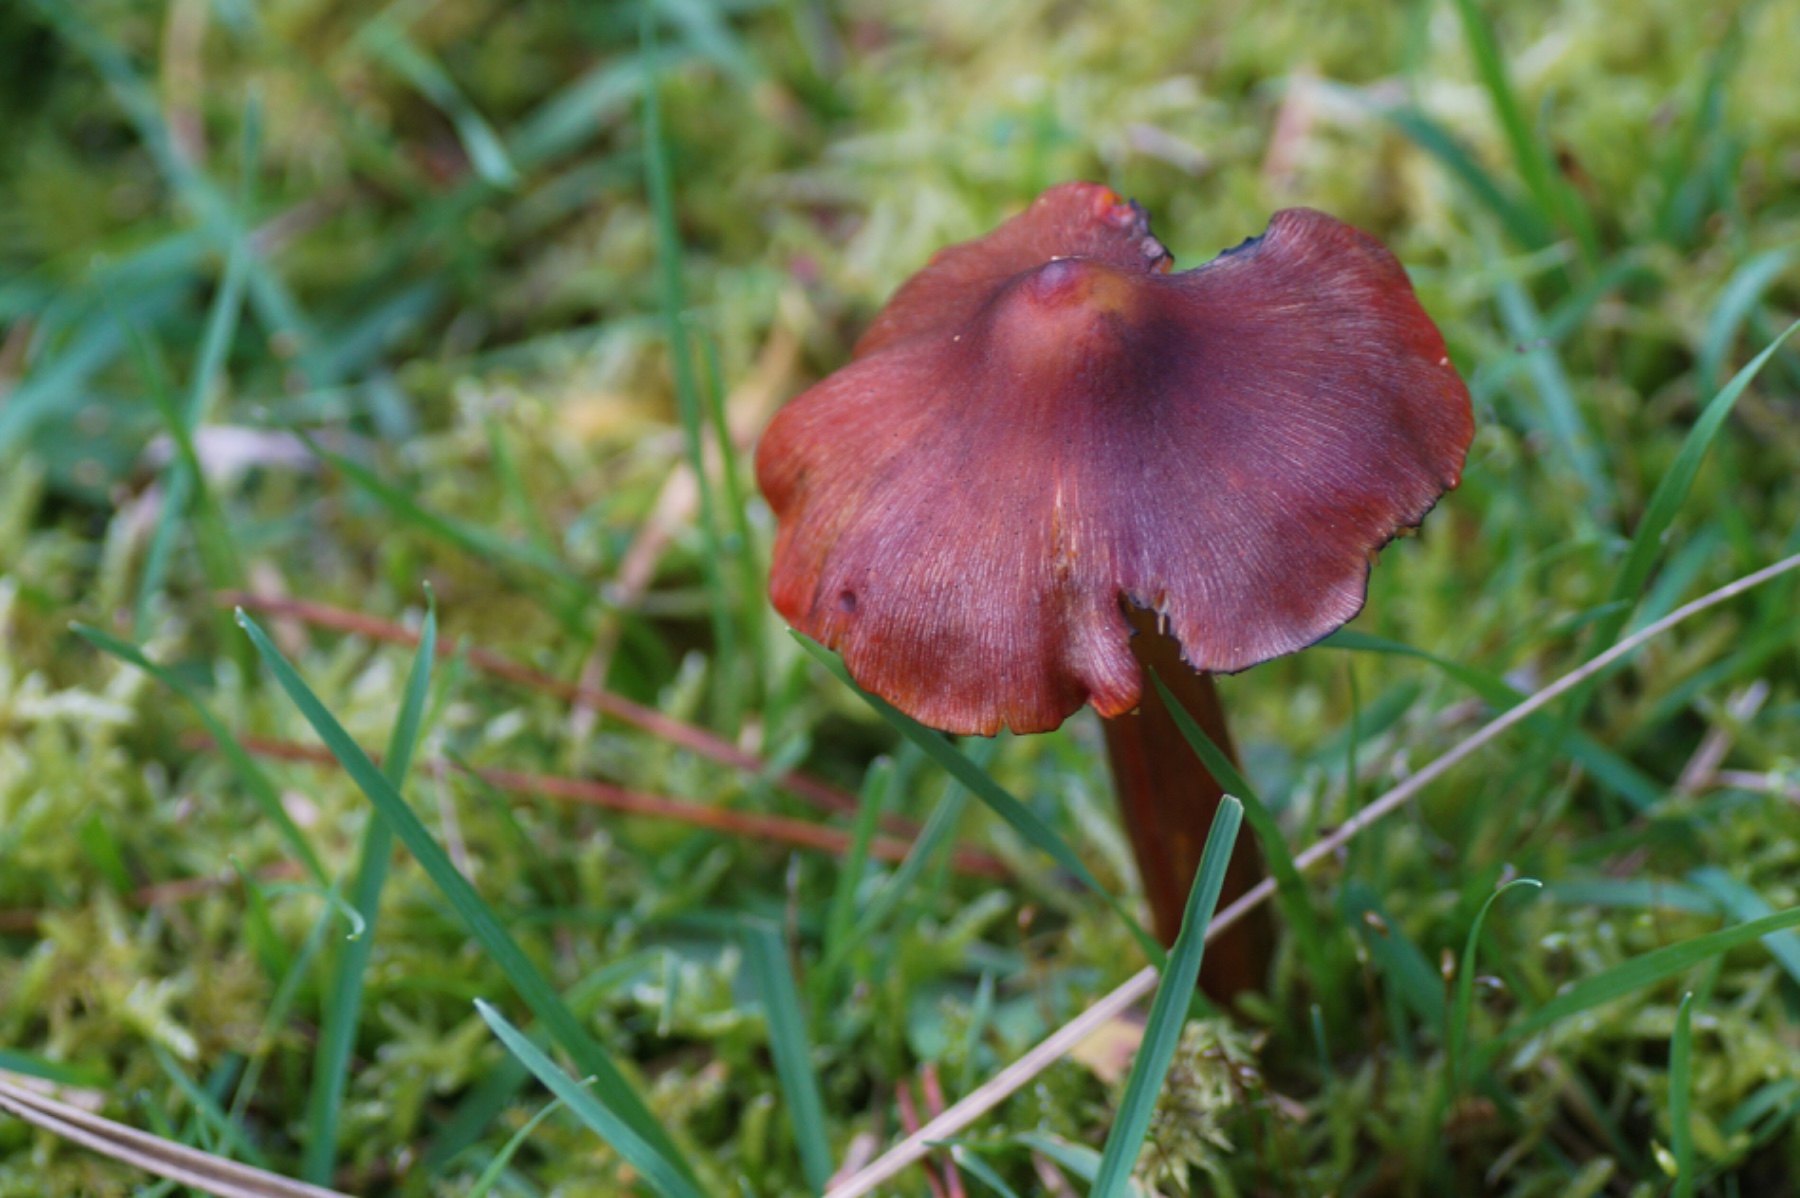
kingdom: Fungi
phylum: Basidiomycota
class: Agaricomycetes
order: Agaricales
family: Hygrophoraceae
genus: Hygrocybe
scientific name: Hygrocybe conica
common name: kegle-vokshat
